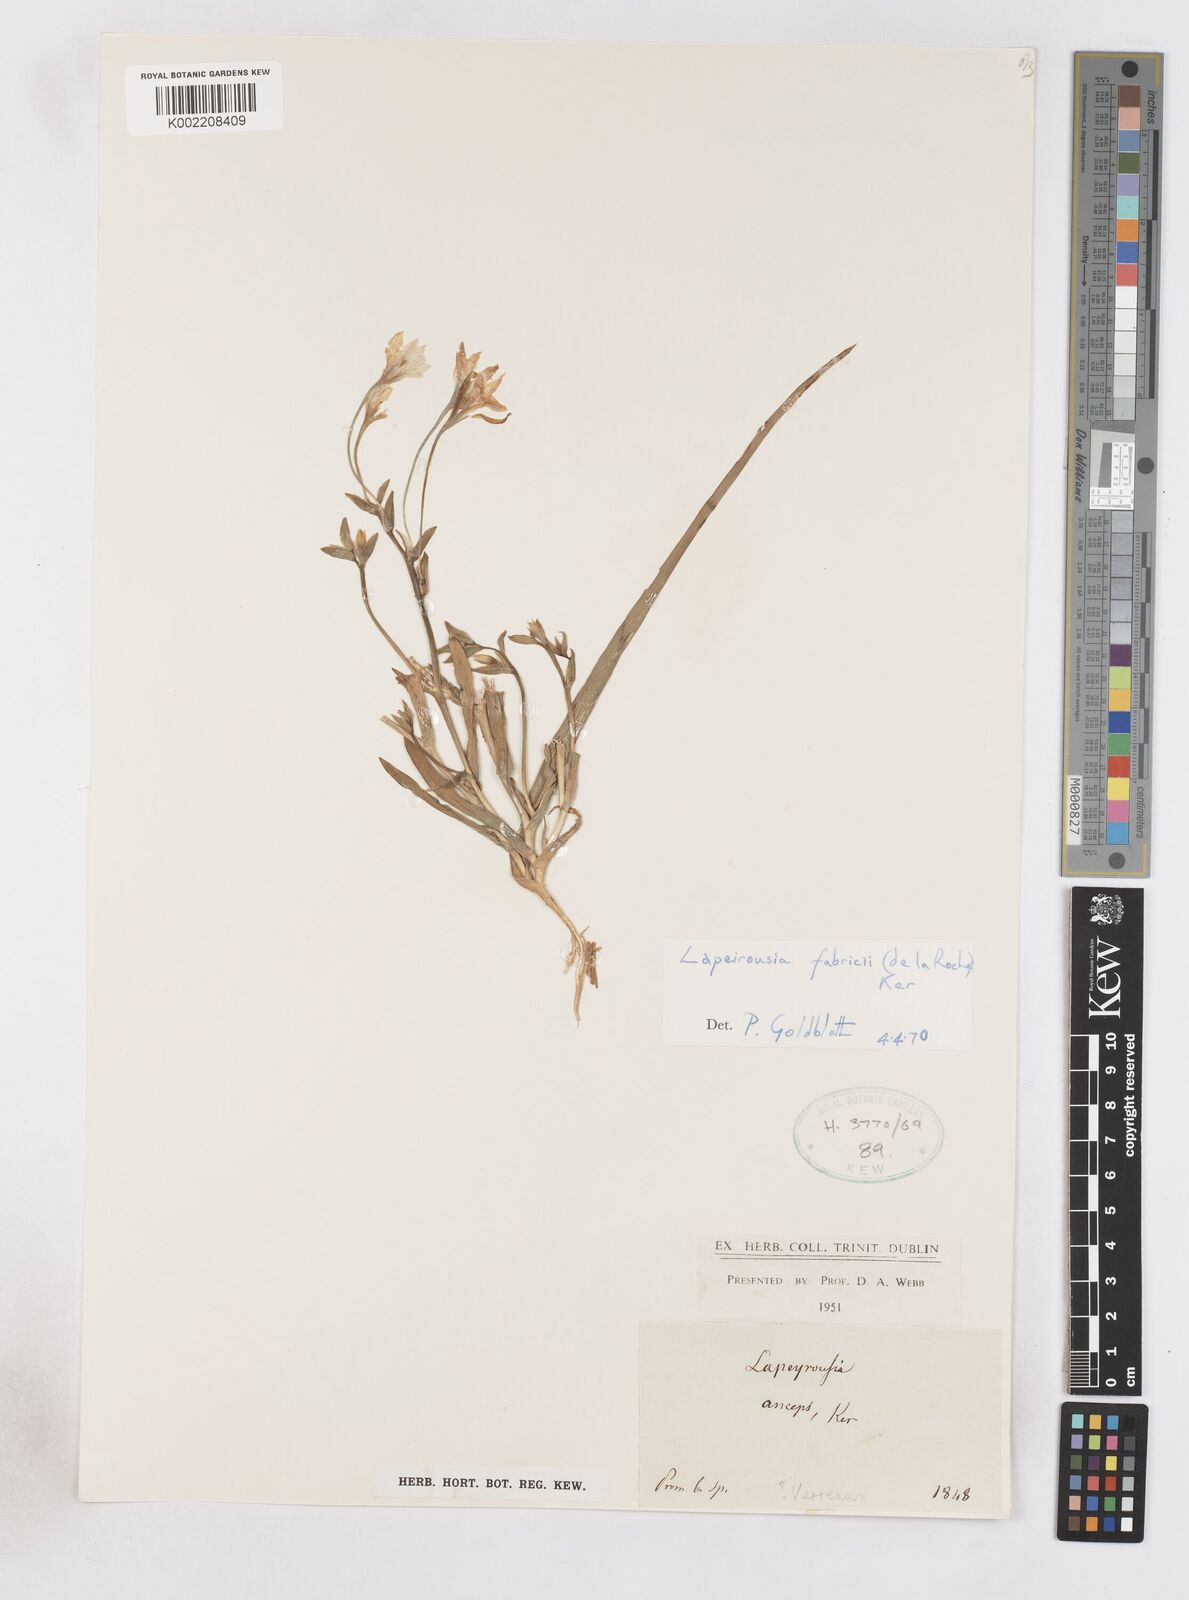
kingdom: Plantae
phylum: Tracheophyta
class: Liliopsida
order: Asparagales
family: Iridaceae
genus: Lapeirousia
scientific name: Lapeirousia fabricii
